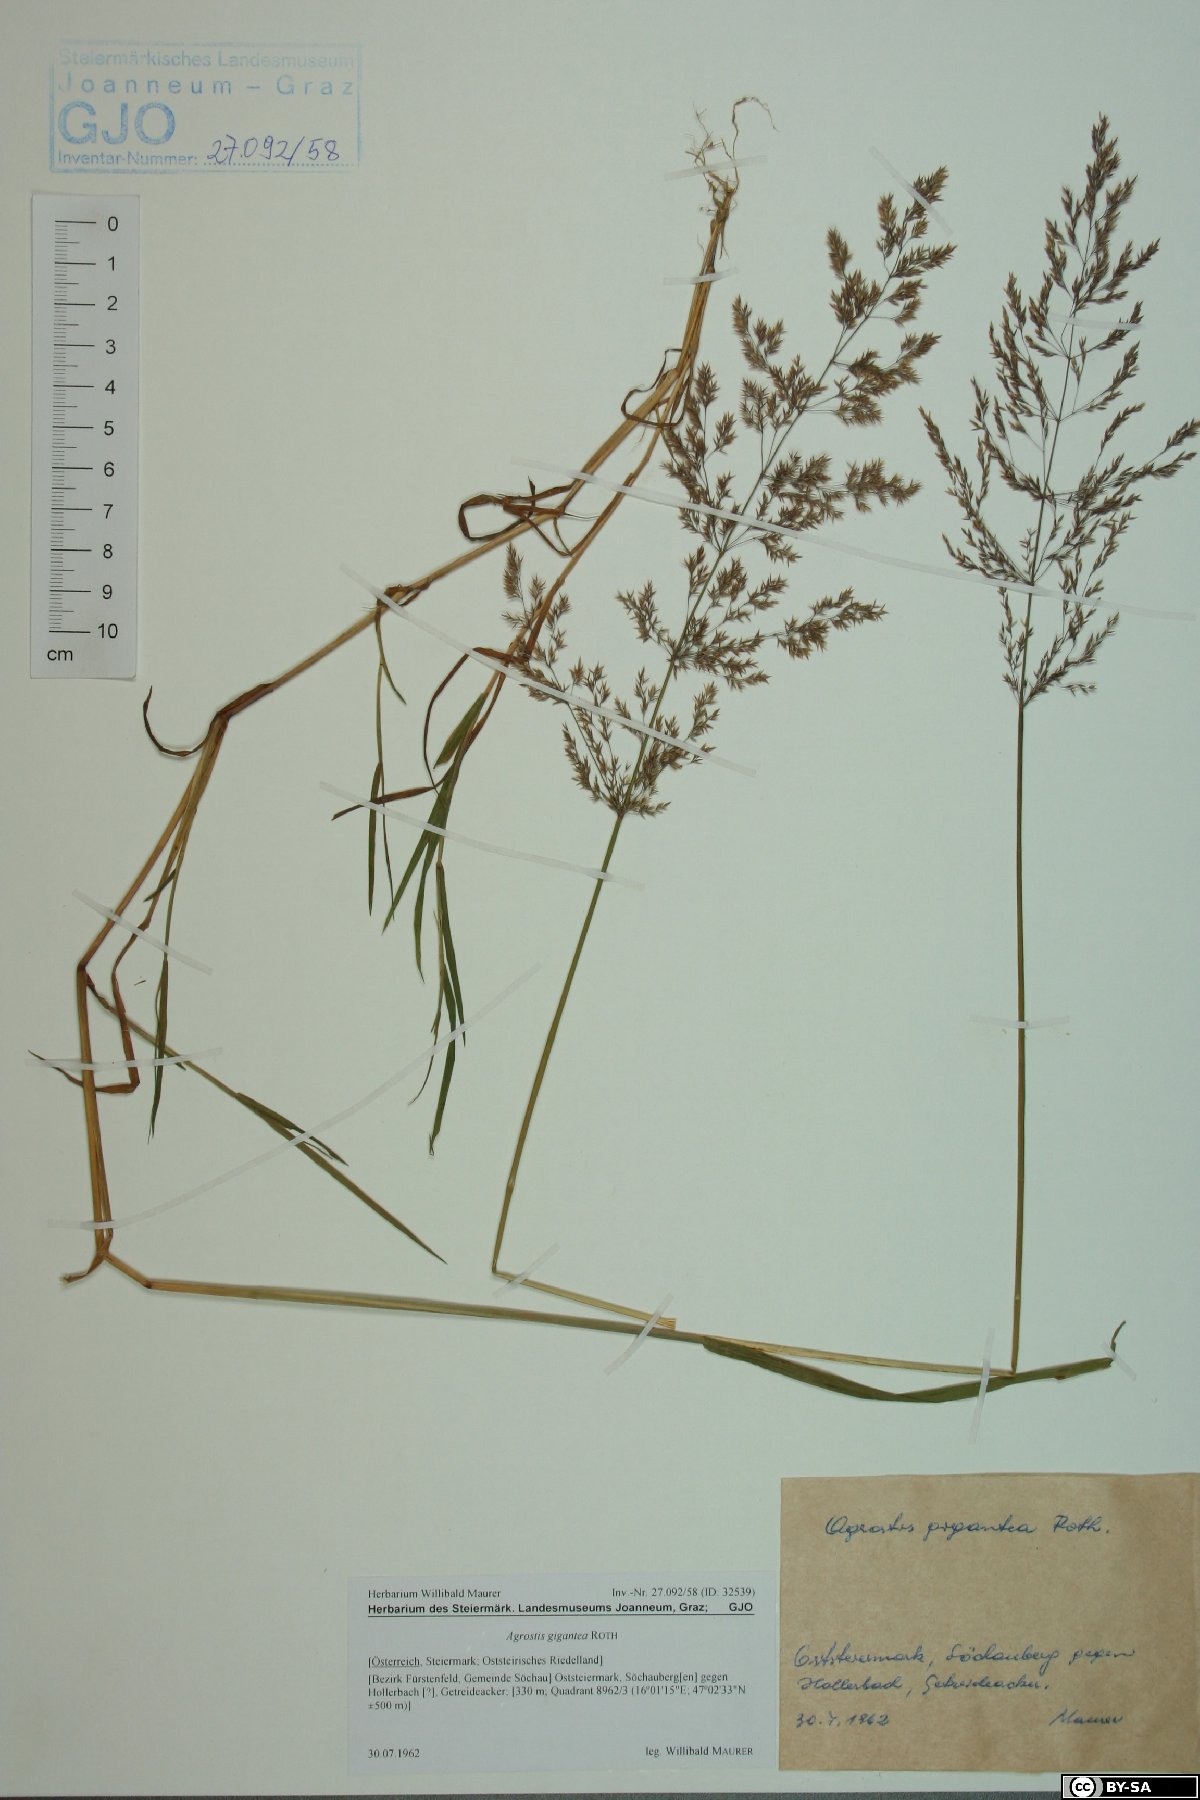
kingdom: Plantae
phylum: Tracheophyta
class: Liliopsida
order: Poales
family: Poaceae
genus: Agrostis
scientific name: Agrostis gigantea
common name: Black bent
